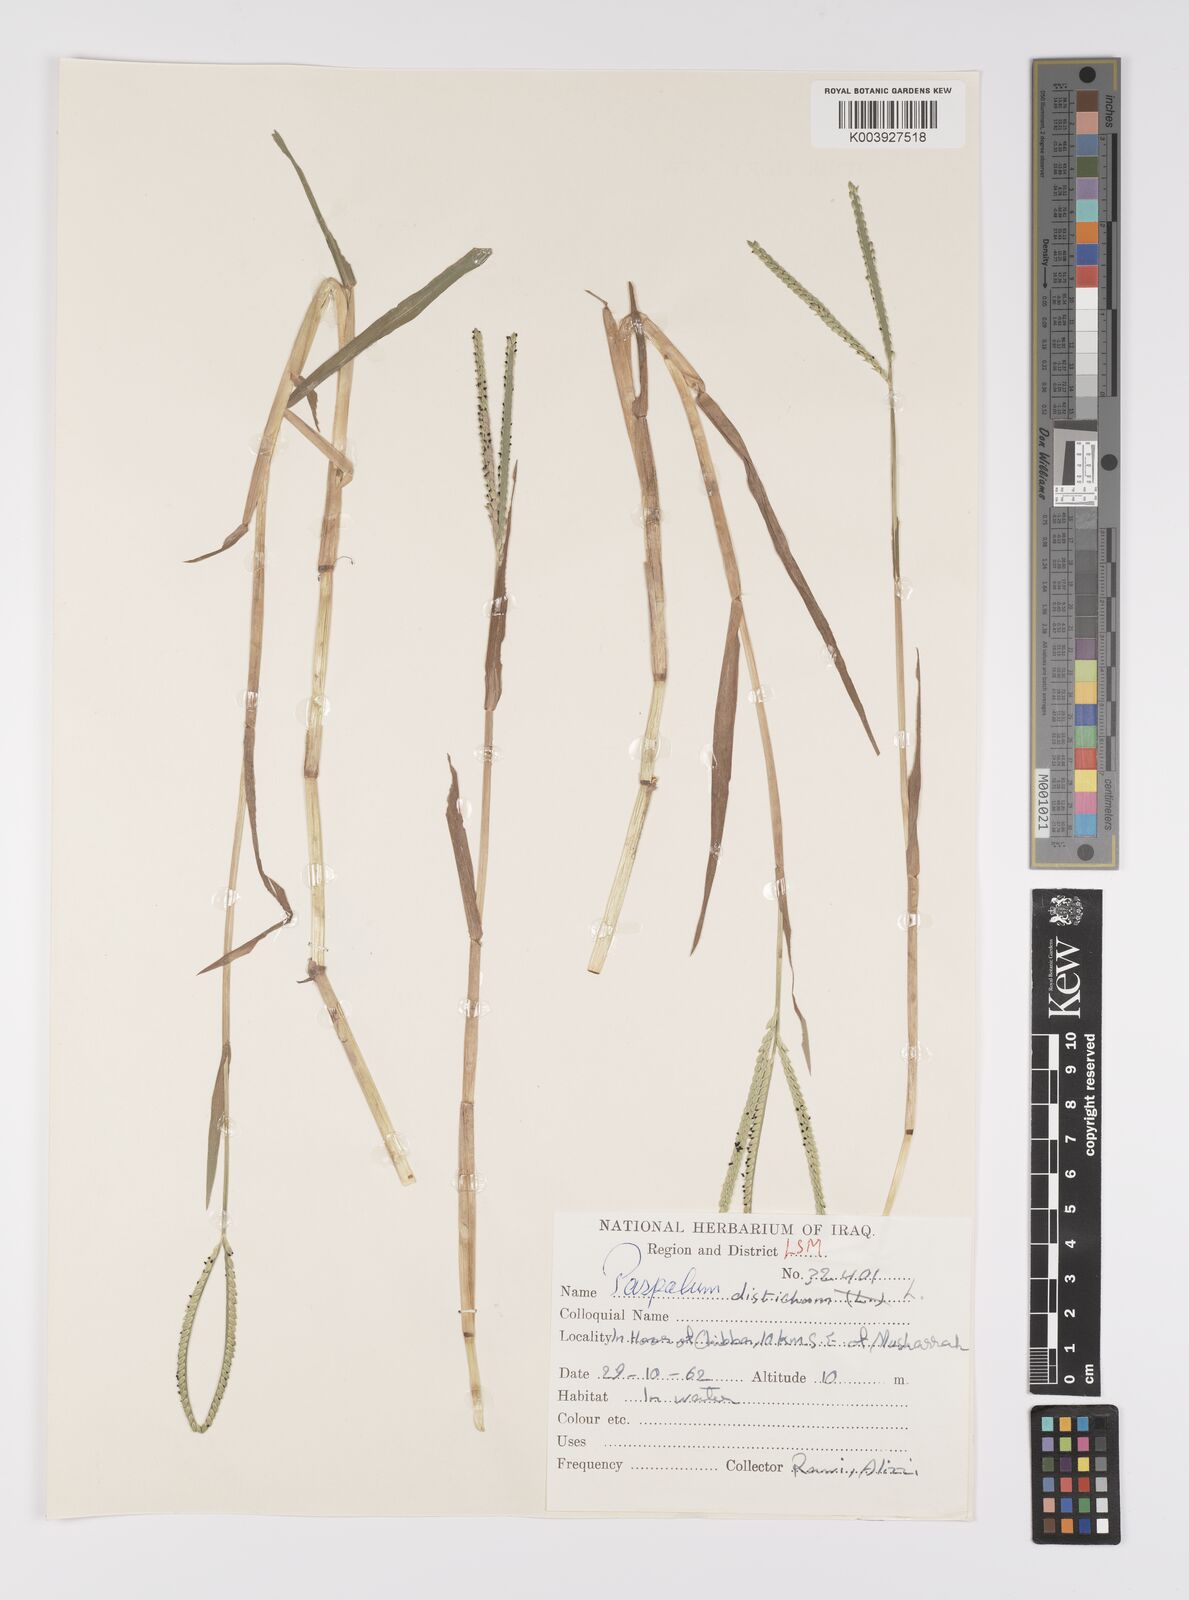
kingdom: Plantae
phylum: Tracheophyta
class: Liliopsida
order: Poales
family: Poaceae
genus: Paspalum
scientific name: Paspalum distichum
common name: Knotgrass
